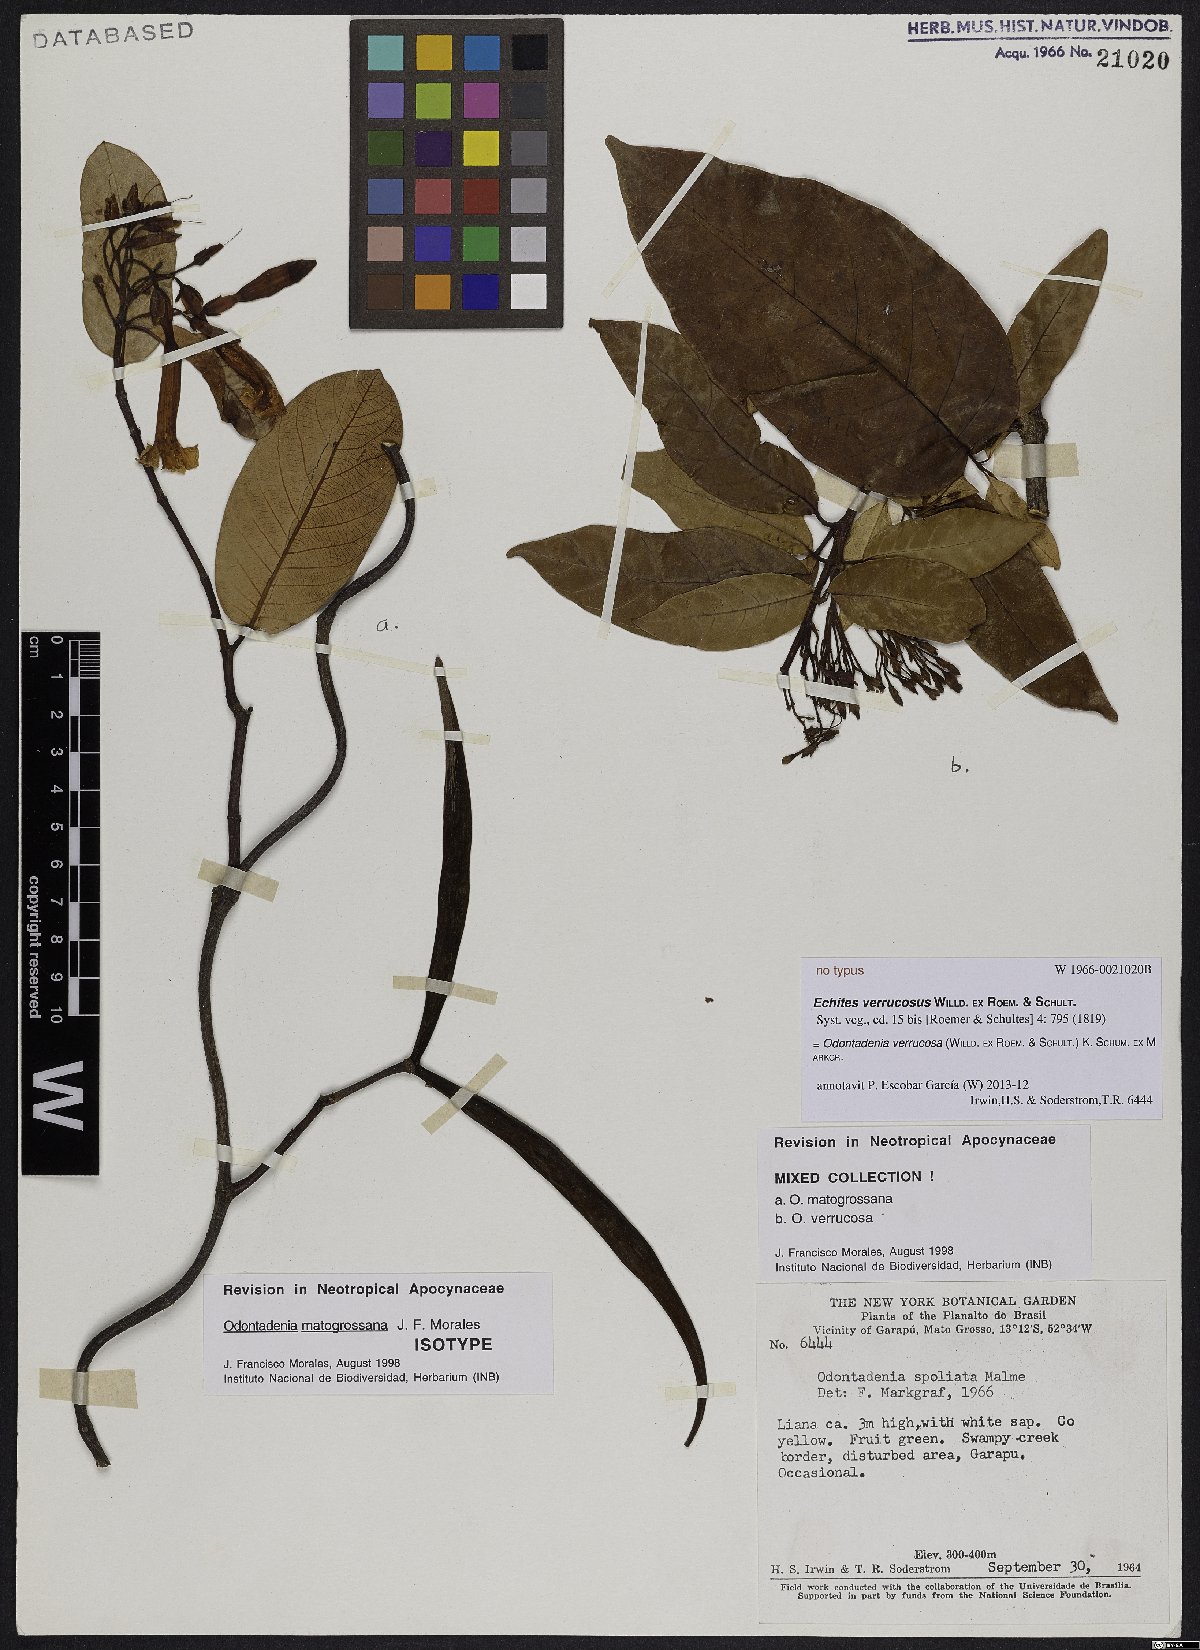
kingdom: Plantae
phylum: Tracheophyta
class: Magnoliopsida
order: Gentianales
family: Apocynaceae
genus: Odontadenia
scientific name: Odontadenia matogrossana
